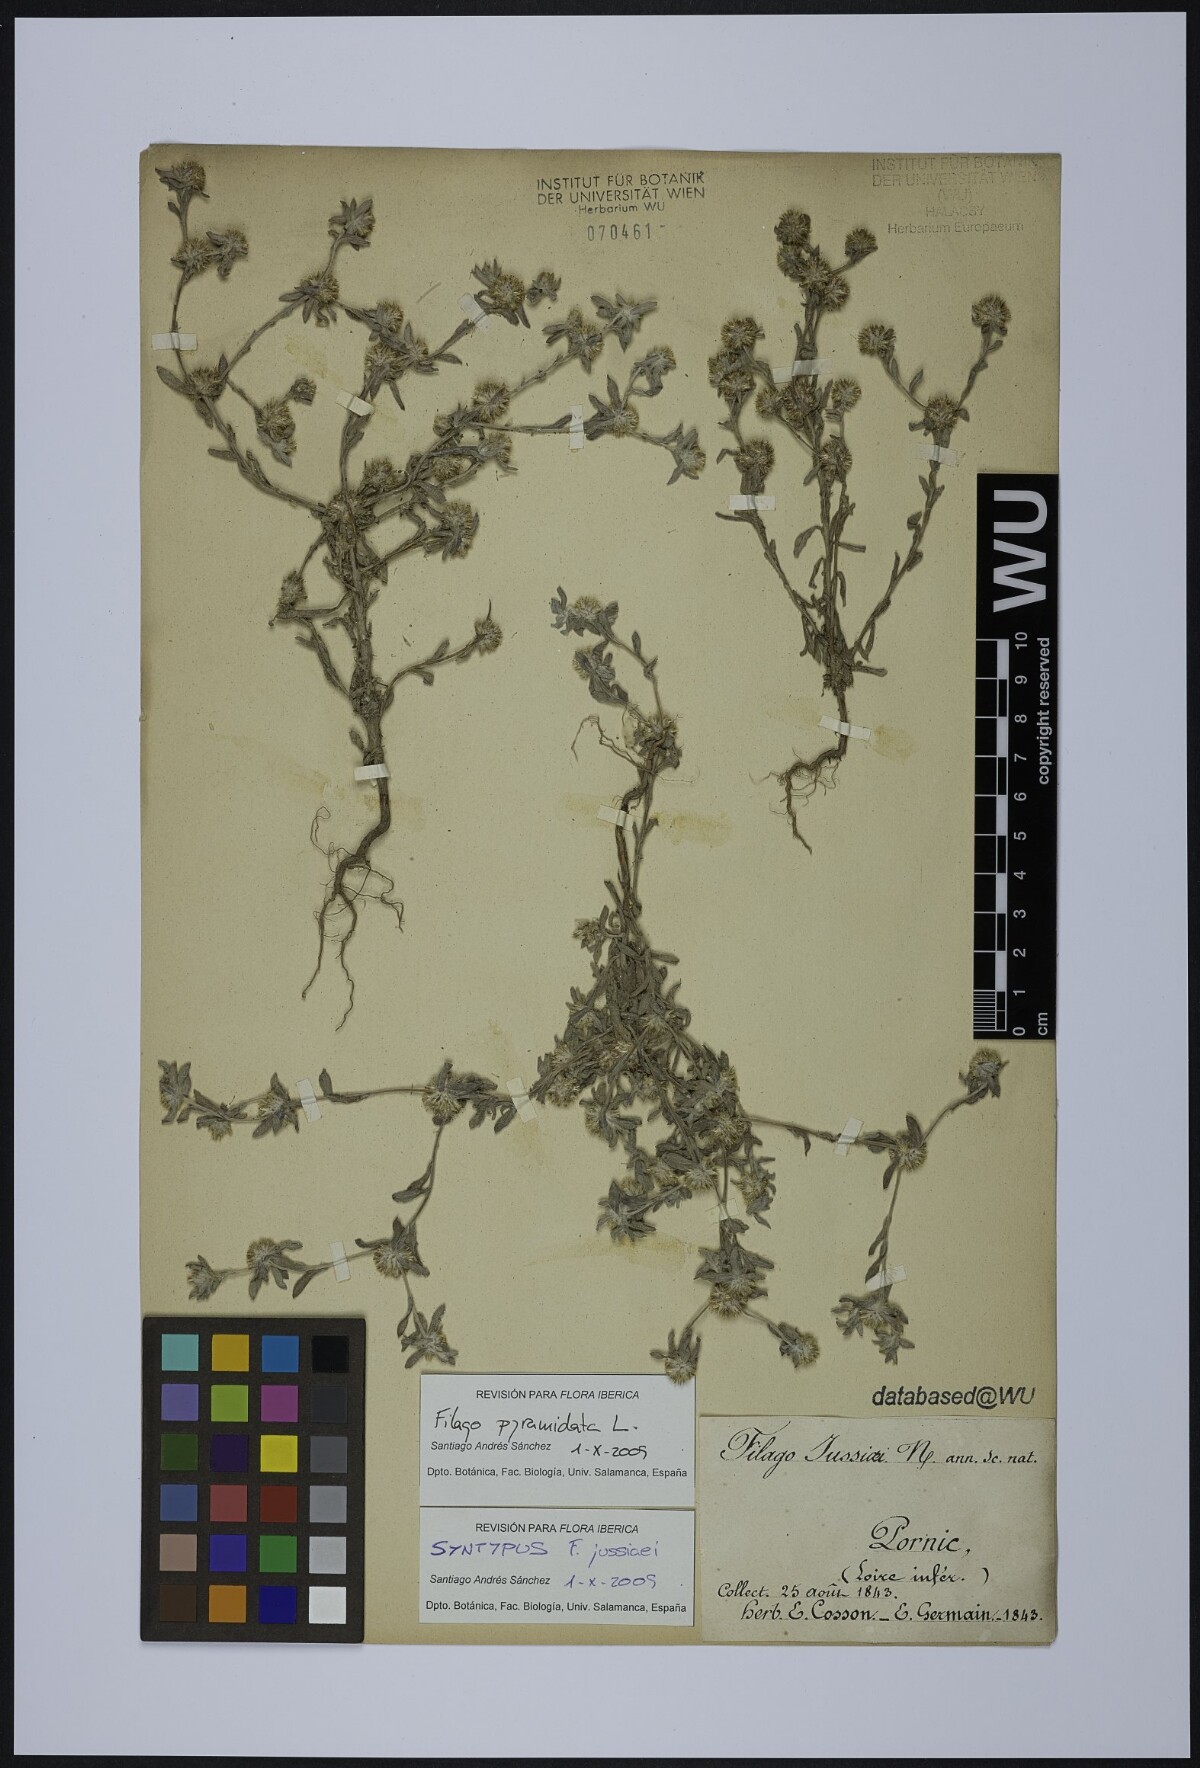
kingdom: Plantae
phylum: Tracheophyta
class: Magnoliopsida
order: Asterales
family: Asteraceae
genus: Filago
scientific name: Filago pyramidata
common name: Broad-leaved cudweed
